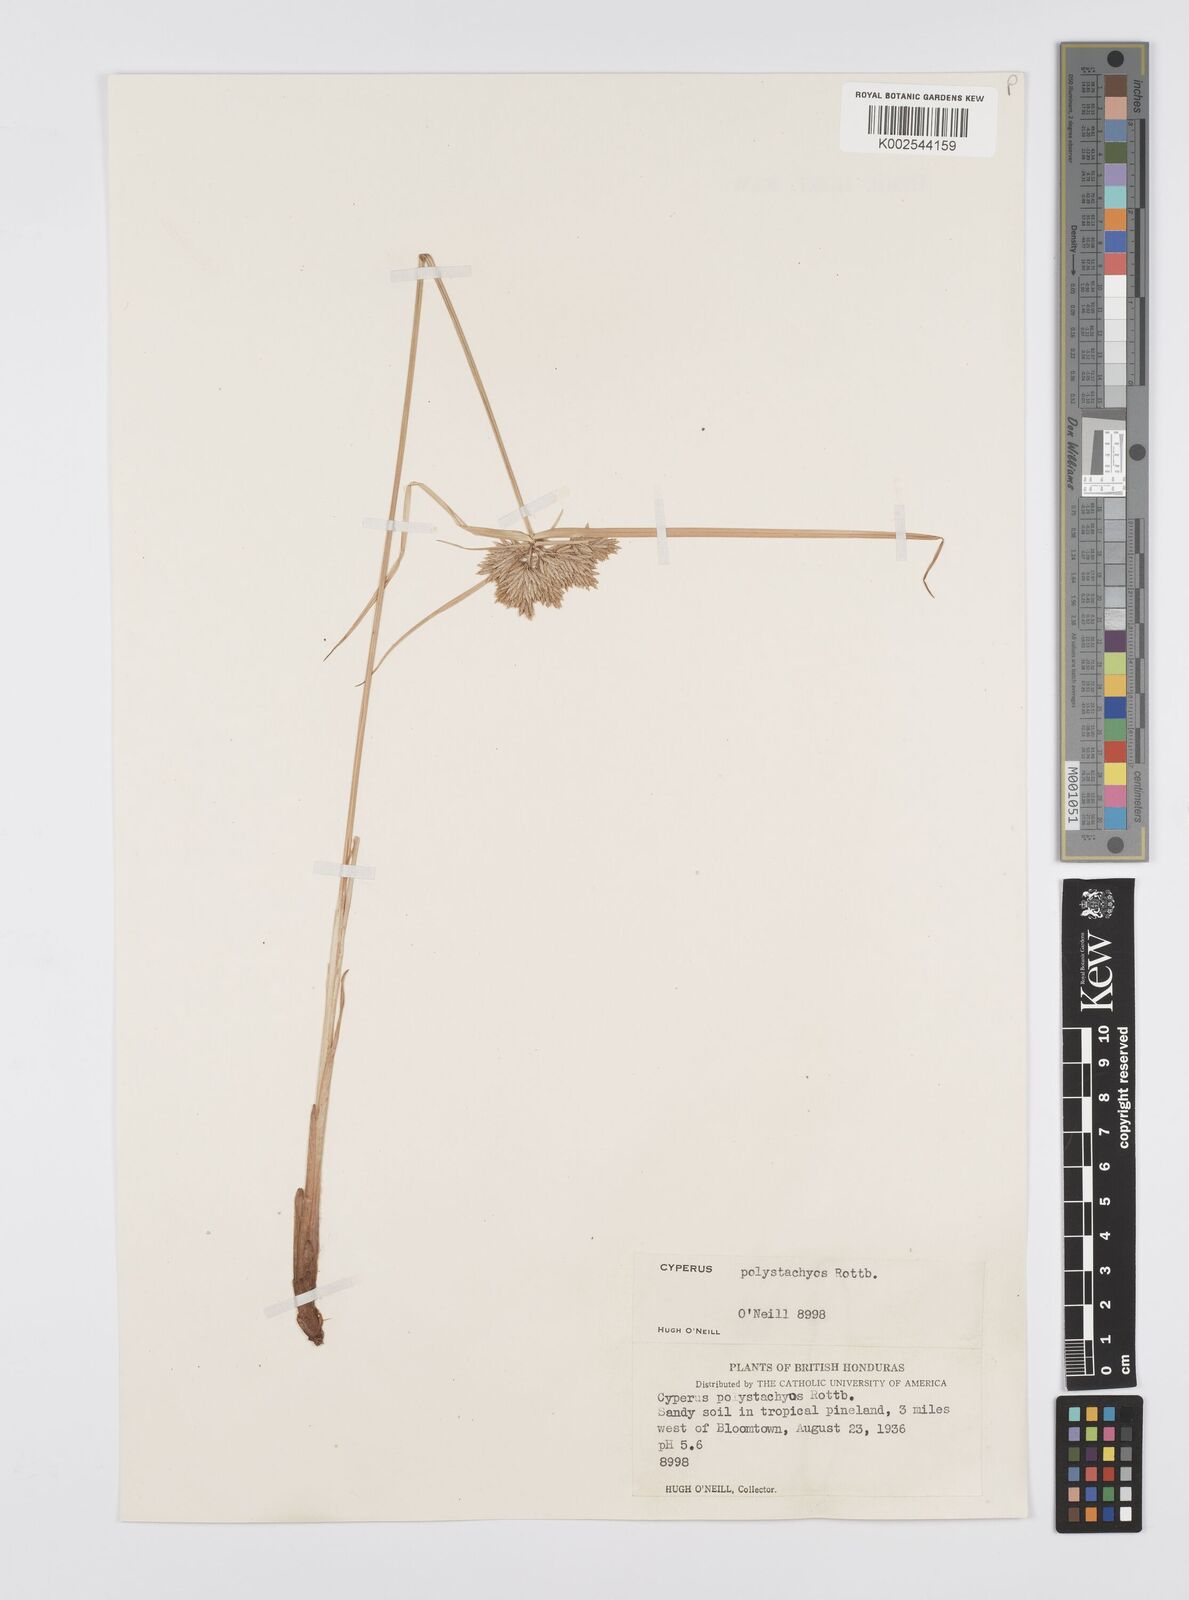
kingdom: Plantae
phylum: Tracheophyta
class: Liliopsida
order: Poales
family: Cyperaceae
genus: Cyperus
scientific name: Cyperus polystachyos
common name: Bunchy flat sedge
